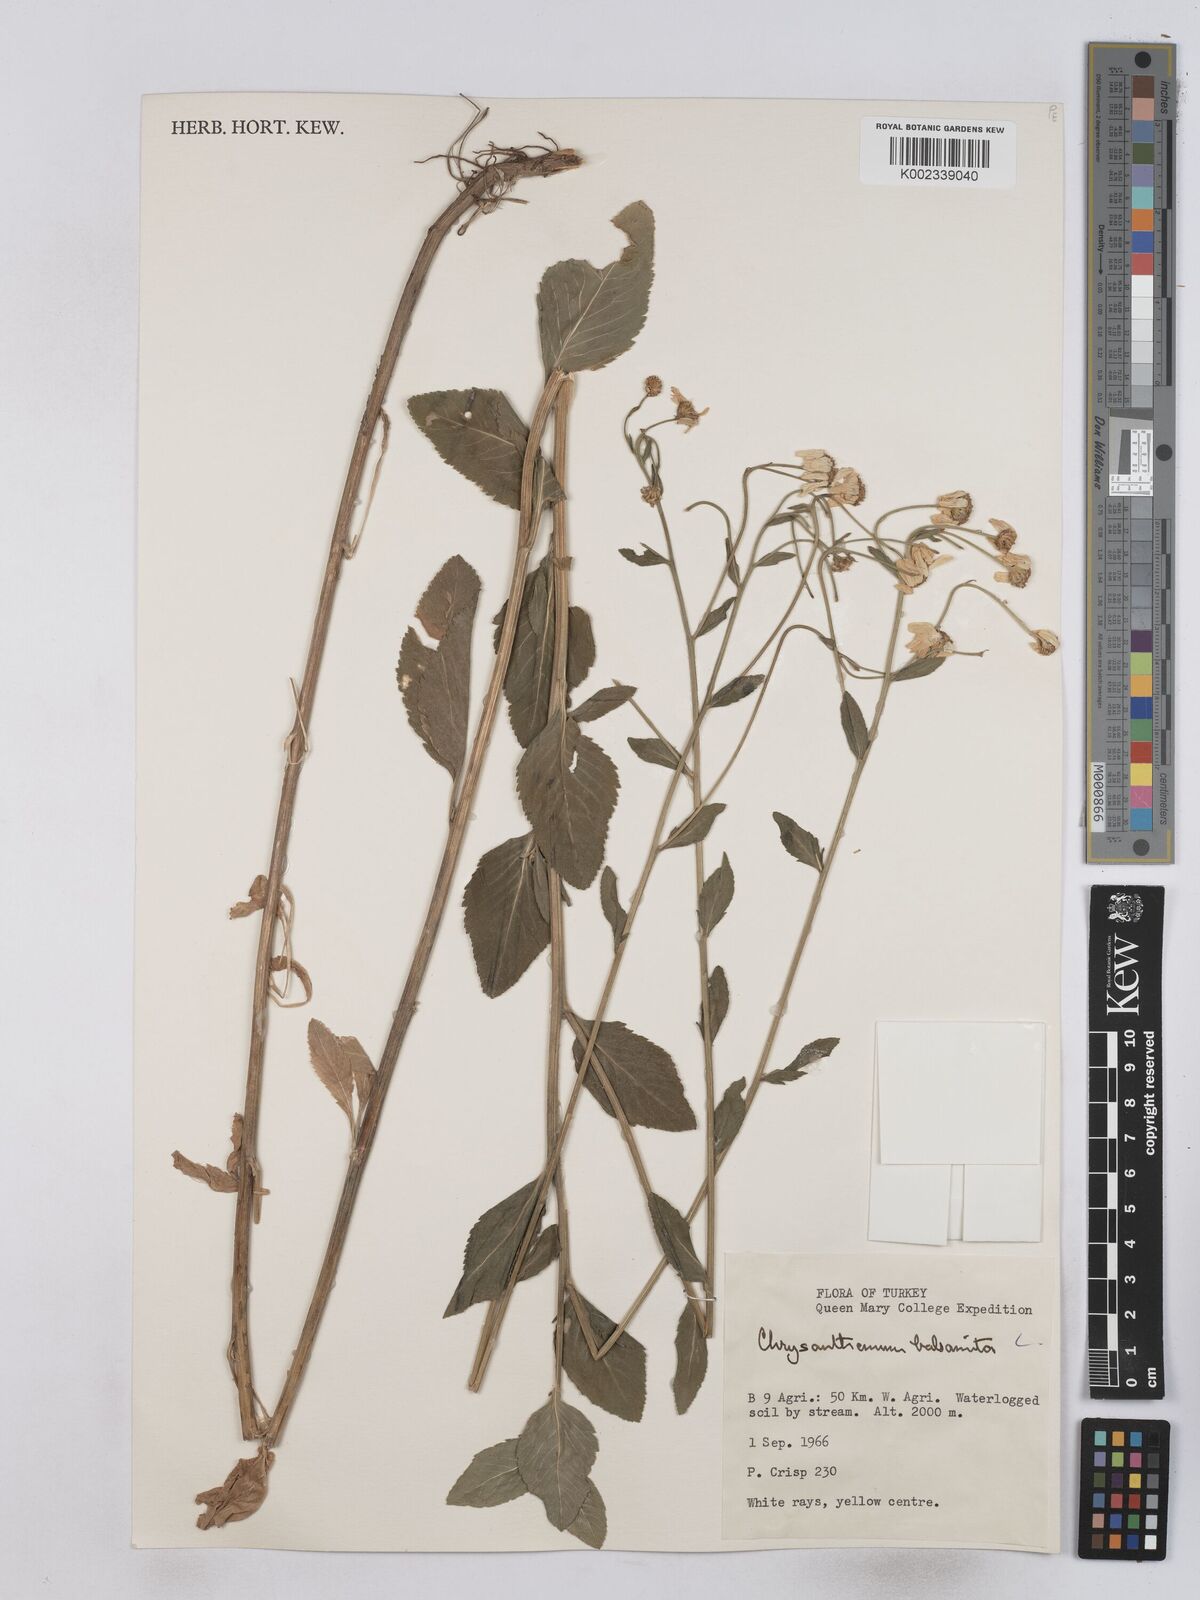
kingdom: Plantae
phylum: Tracheophyta
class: Magnoliopsida
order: Asterales
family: Asteraceae
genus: Tanacetum
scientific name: Tanacetum balsamita
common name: Costmary
